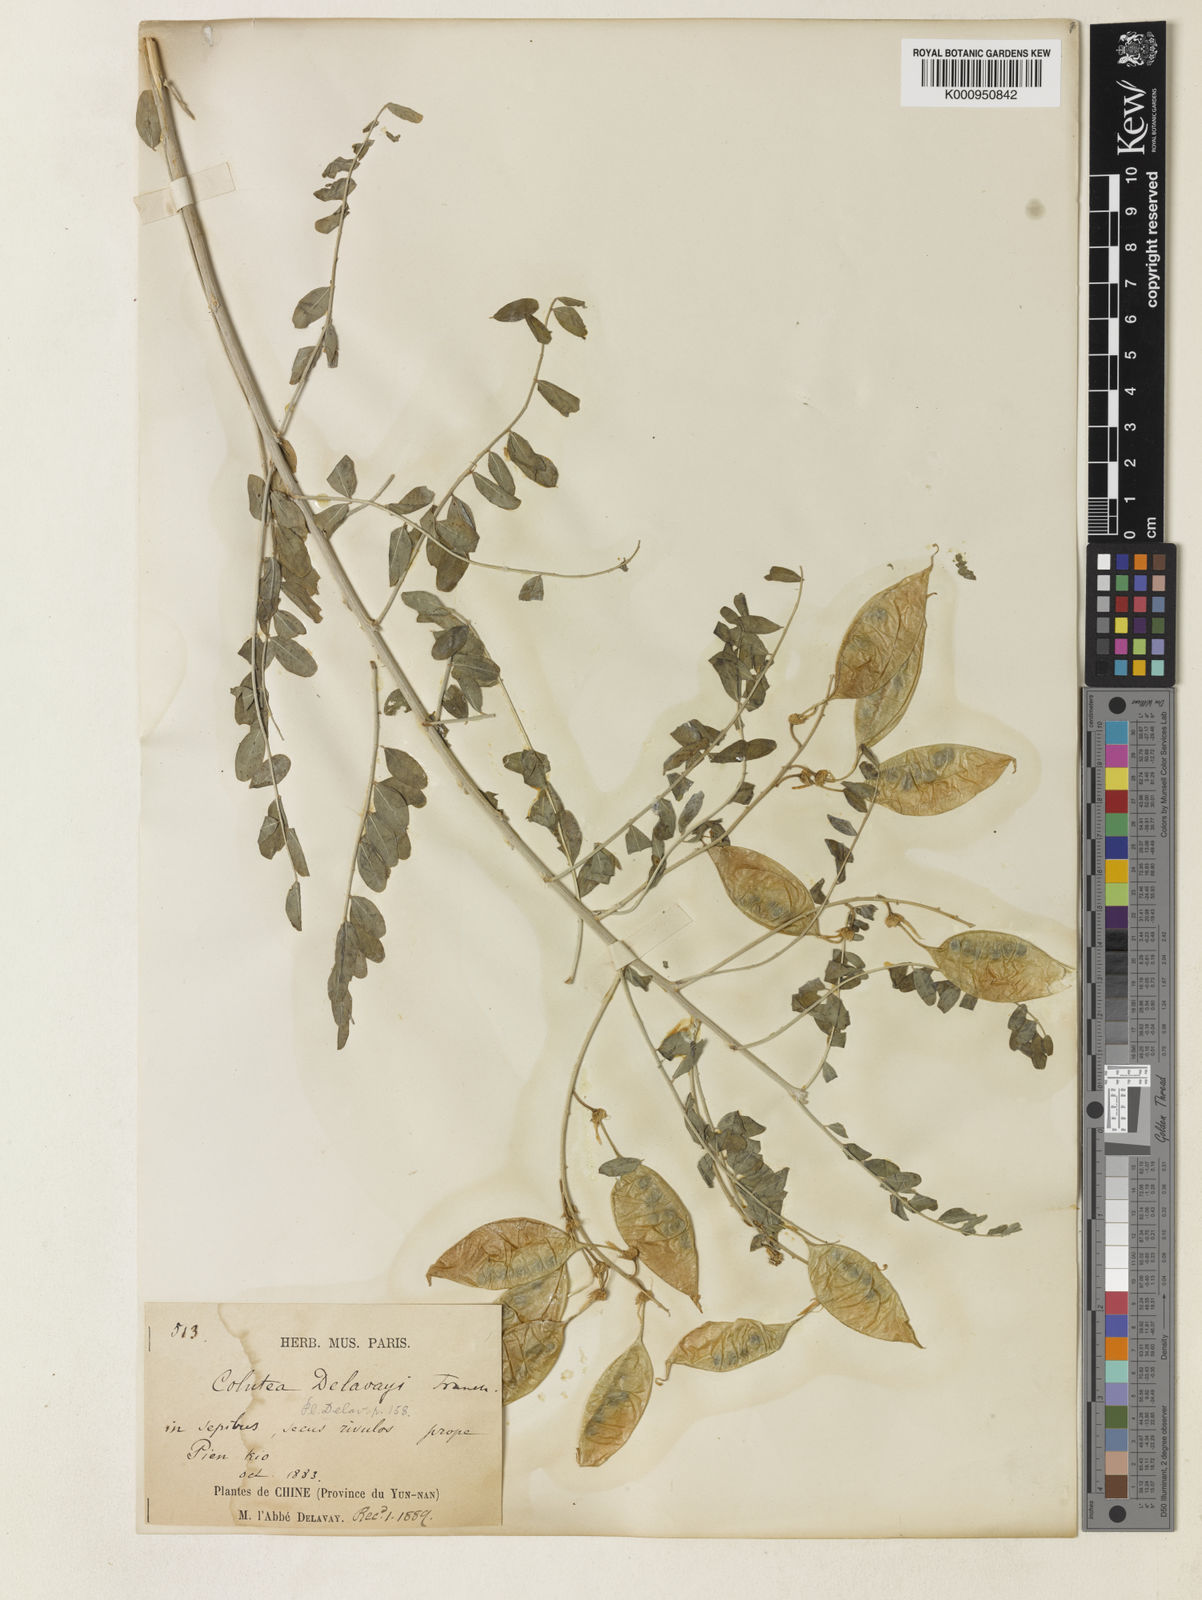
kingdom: Plantae
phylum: Tracheophyta
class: Magnoliopsida
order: Fabales
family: Fabaceae
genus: Colutea
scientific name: Colutea delavayi
